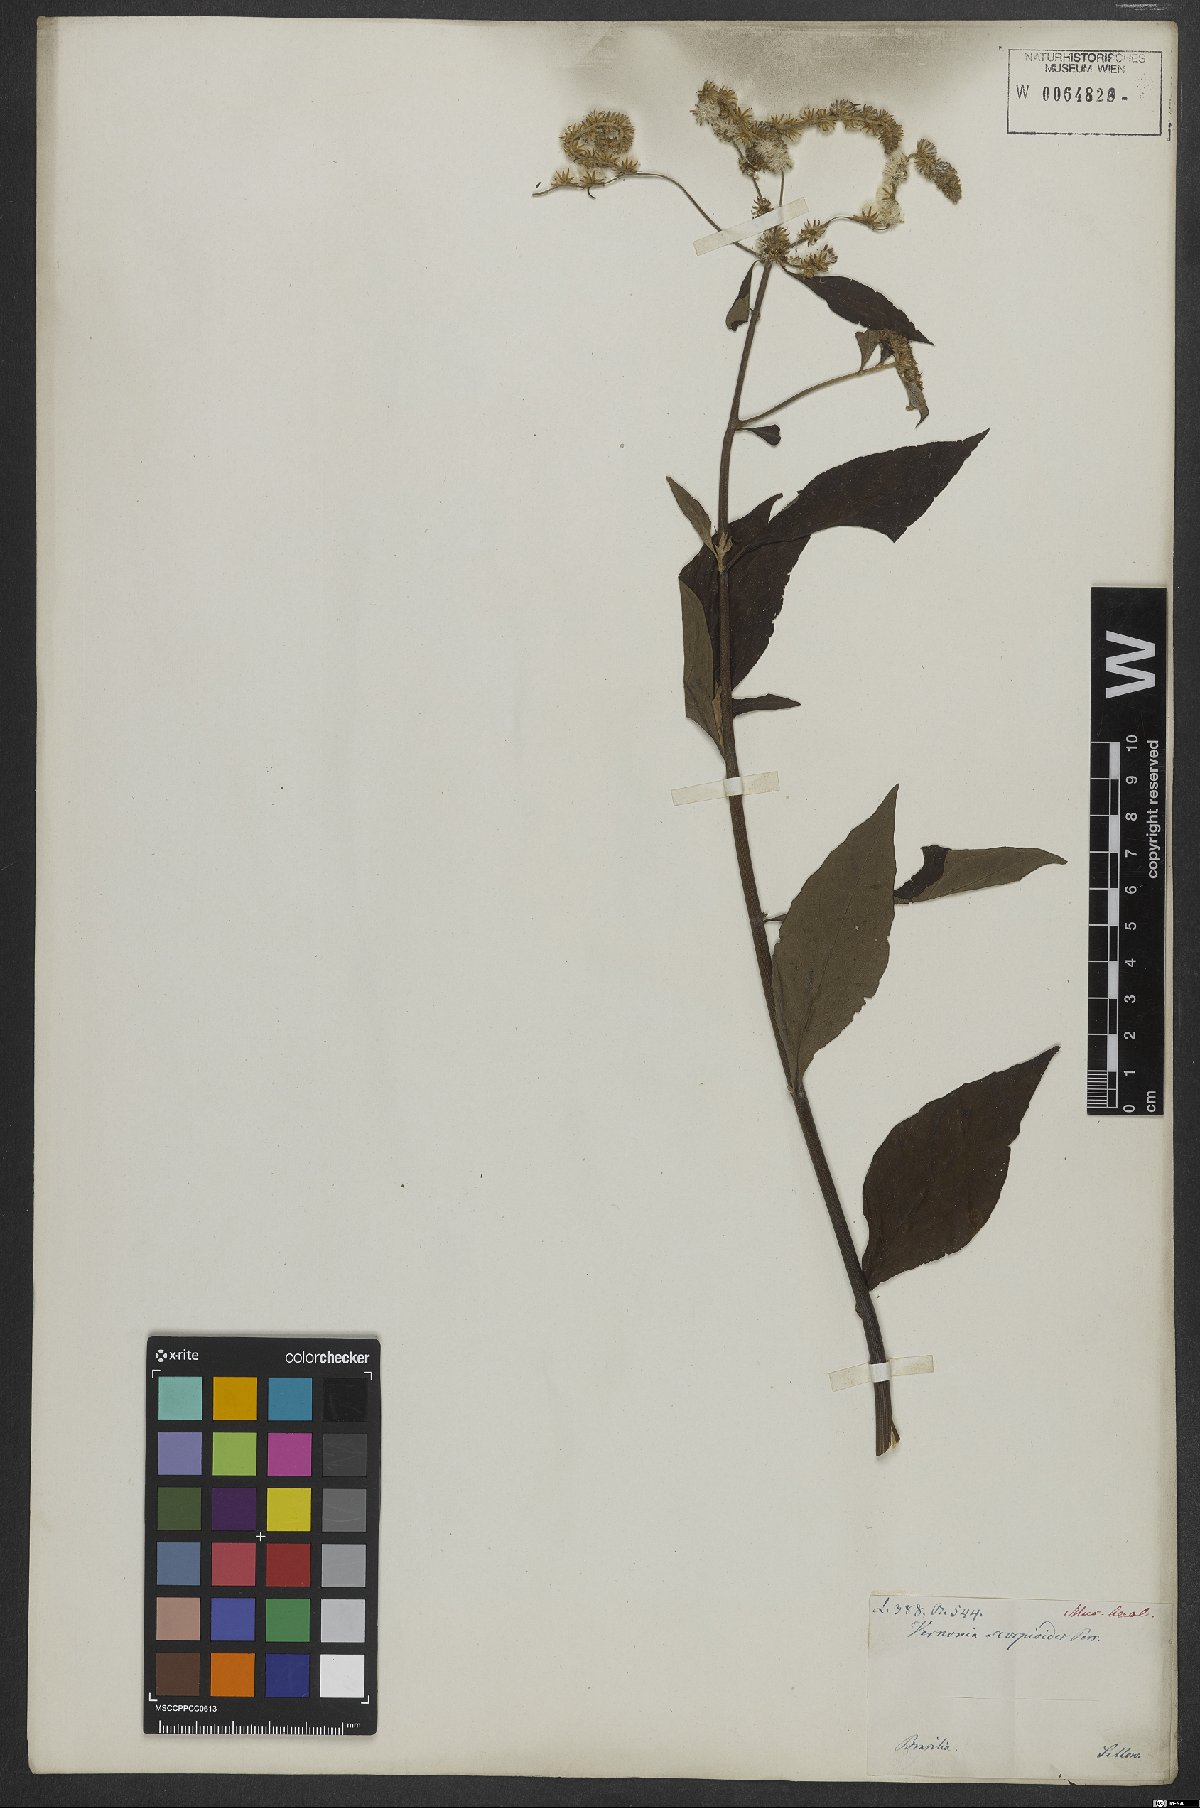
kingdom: Plantae
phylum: Tracheophyta
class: Magnoliopsida
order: Asterales
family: Asteraceae
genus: Cyrtocymura
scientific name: Cyrtocymura scorpioides
